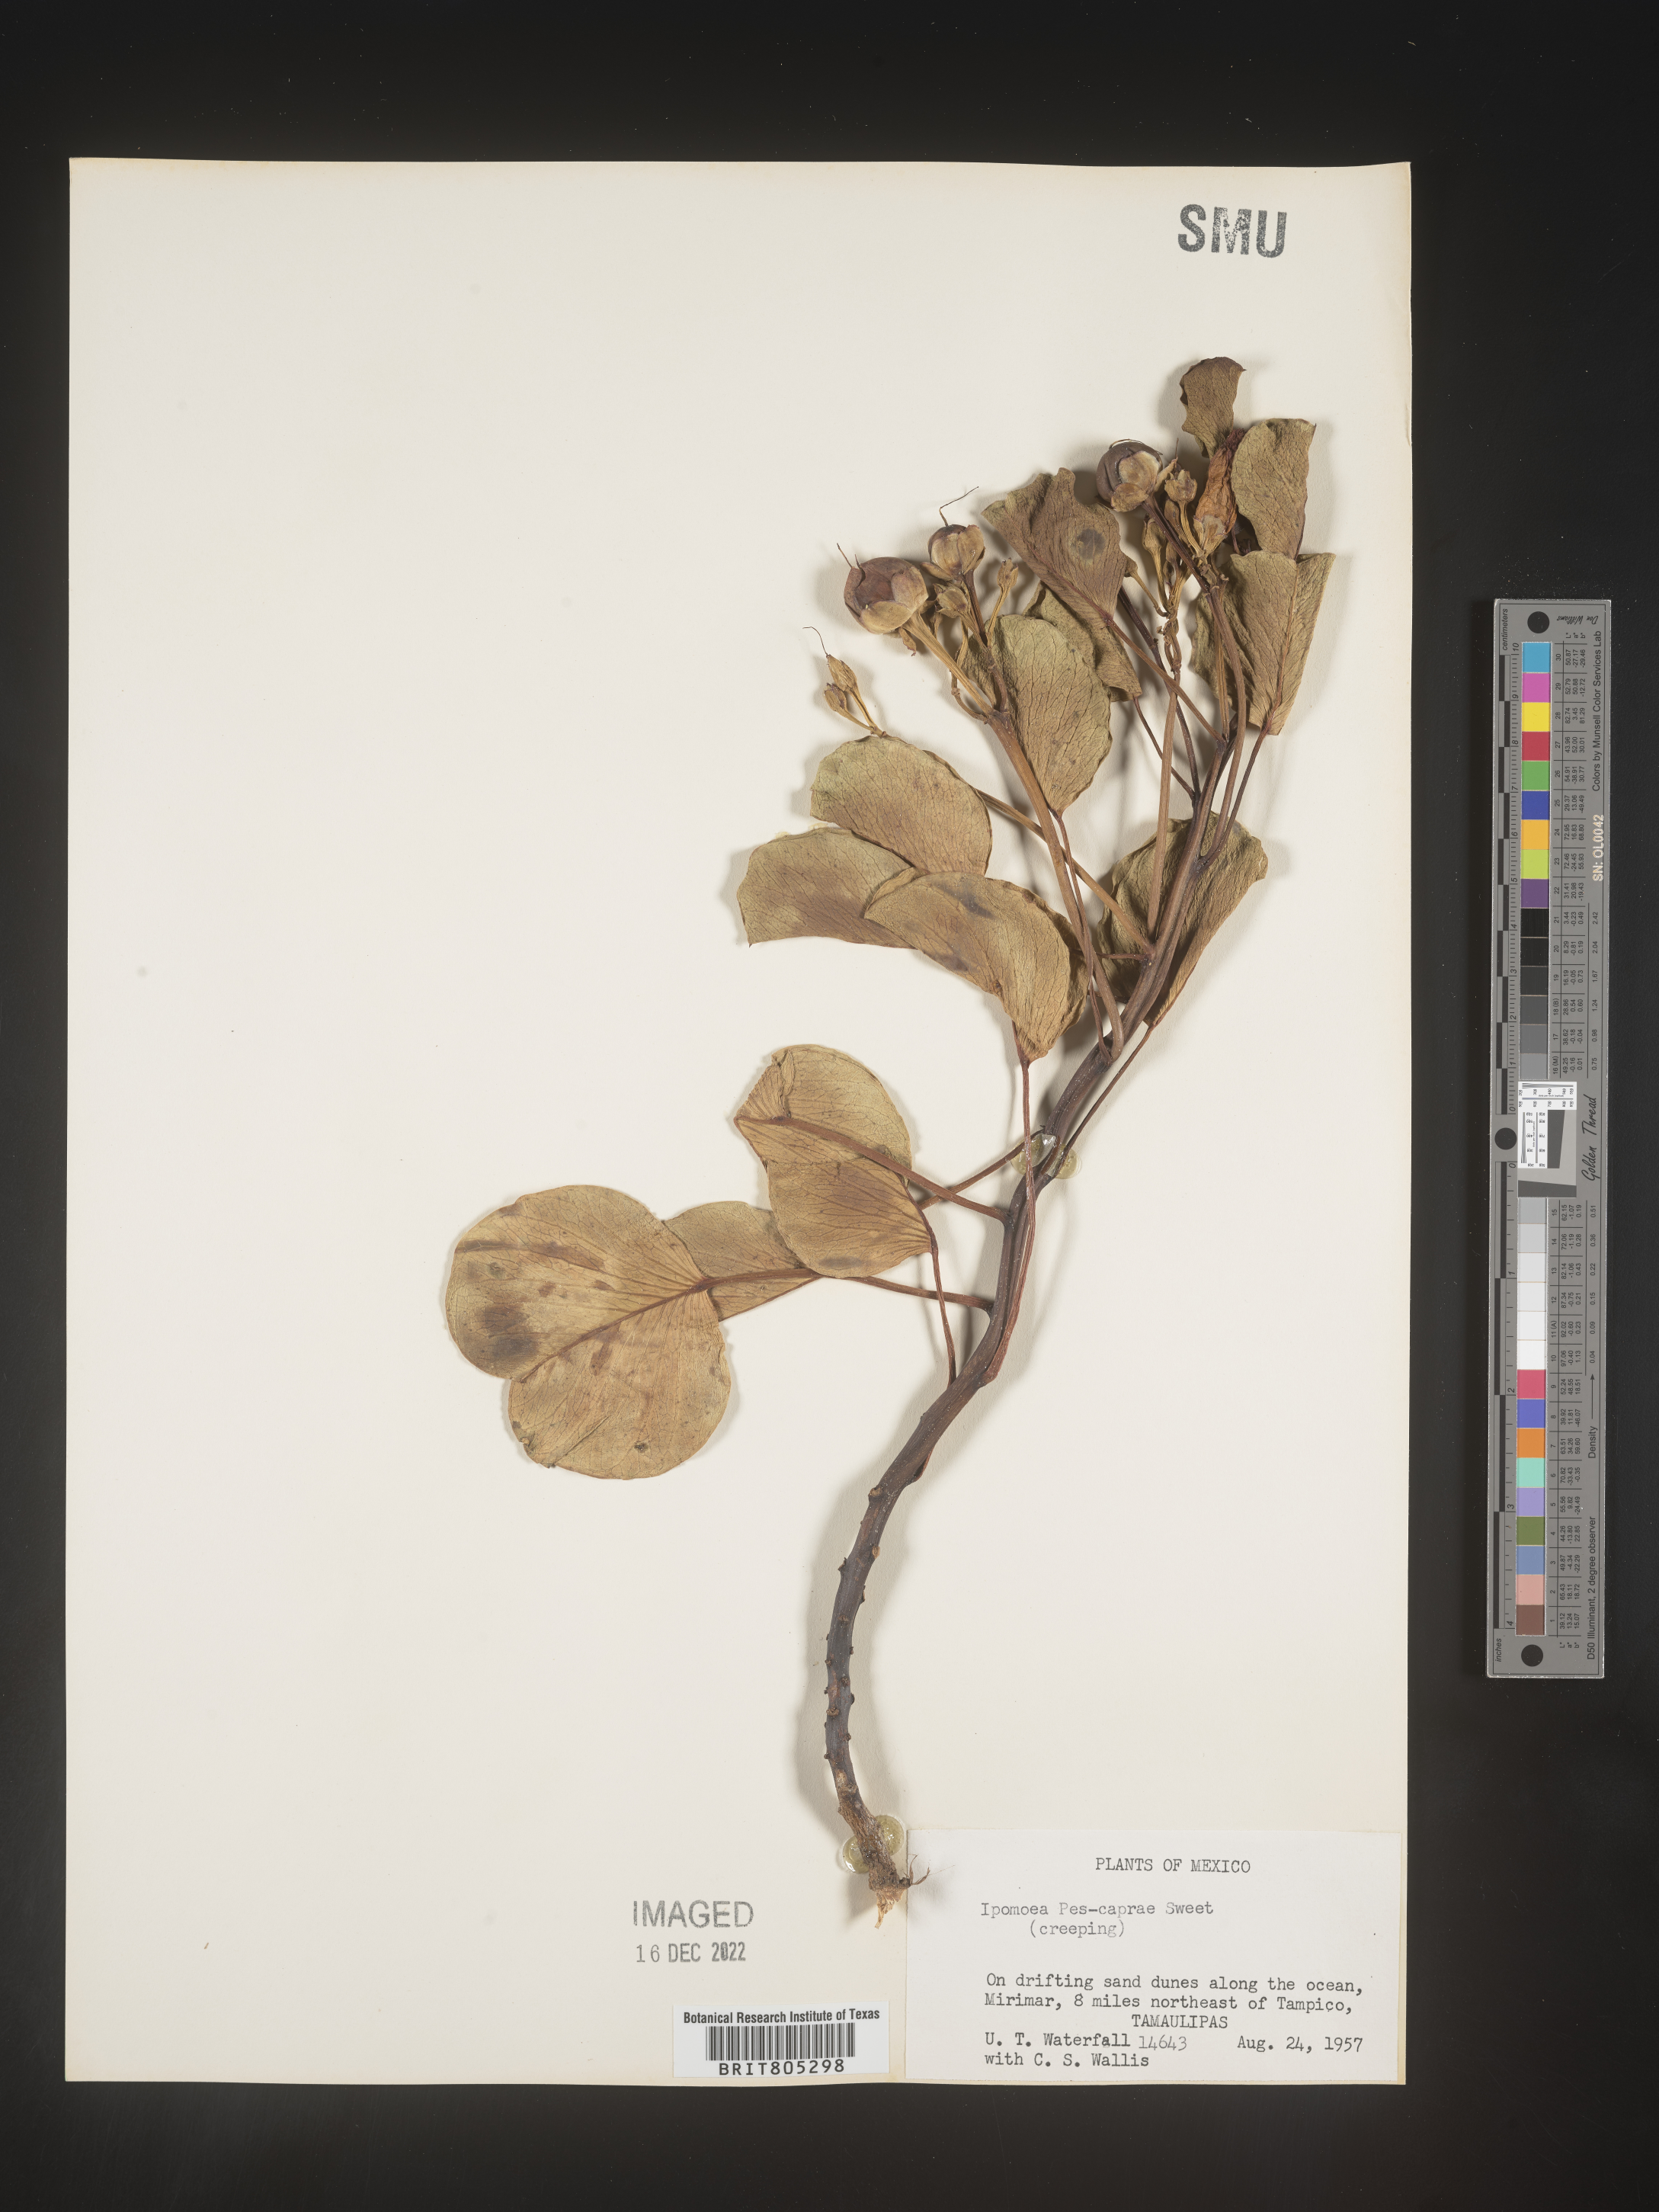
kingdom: Plantae
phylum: Tracheophyta
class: Magnoliopsida
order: Solanales
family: Convolvulaceae
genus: Ipomoea
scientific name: Ipomoea
